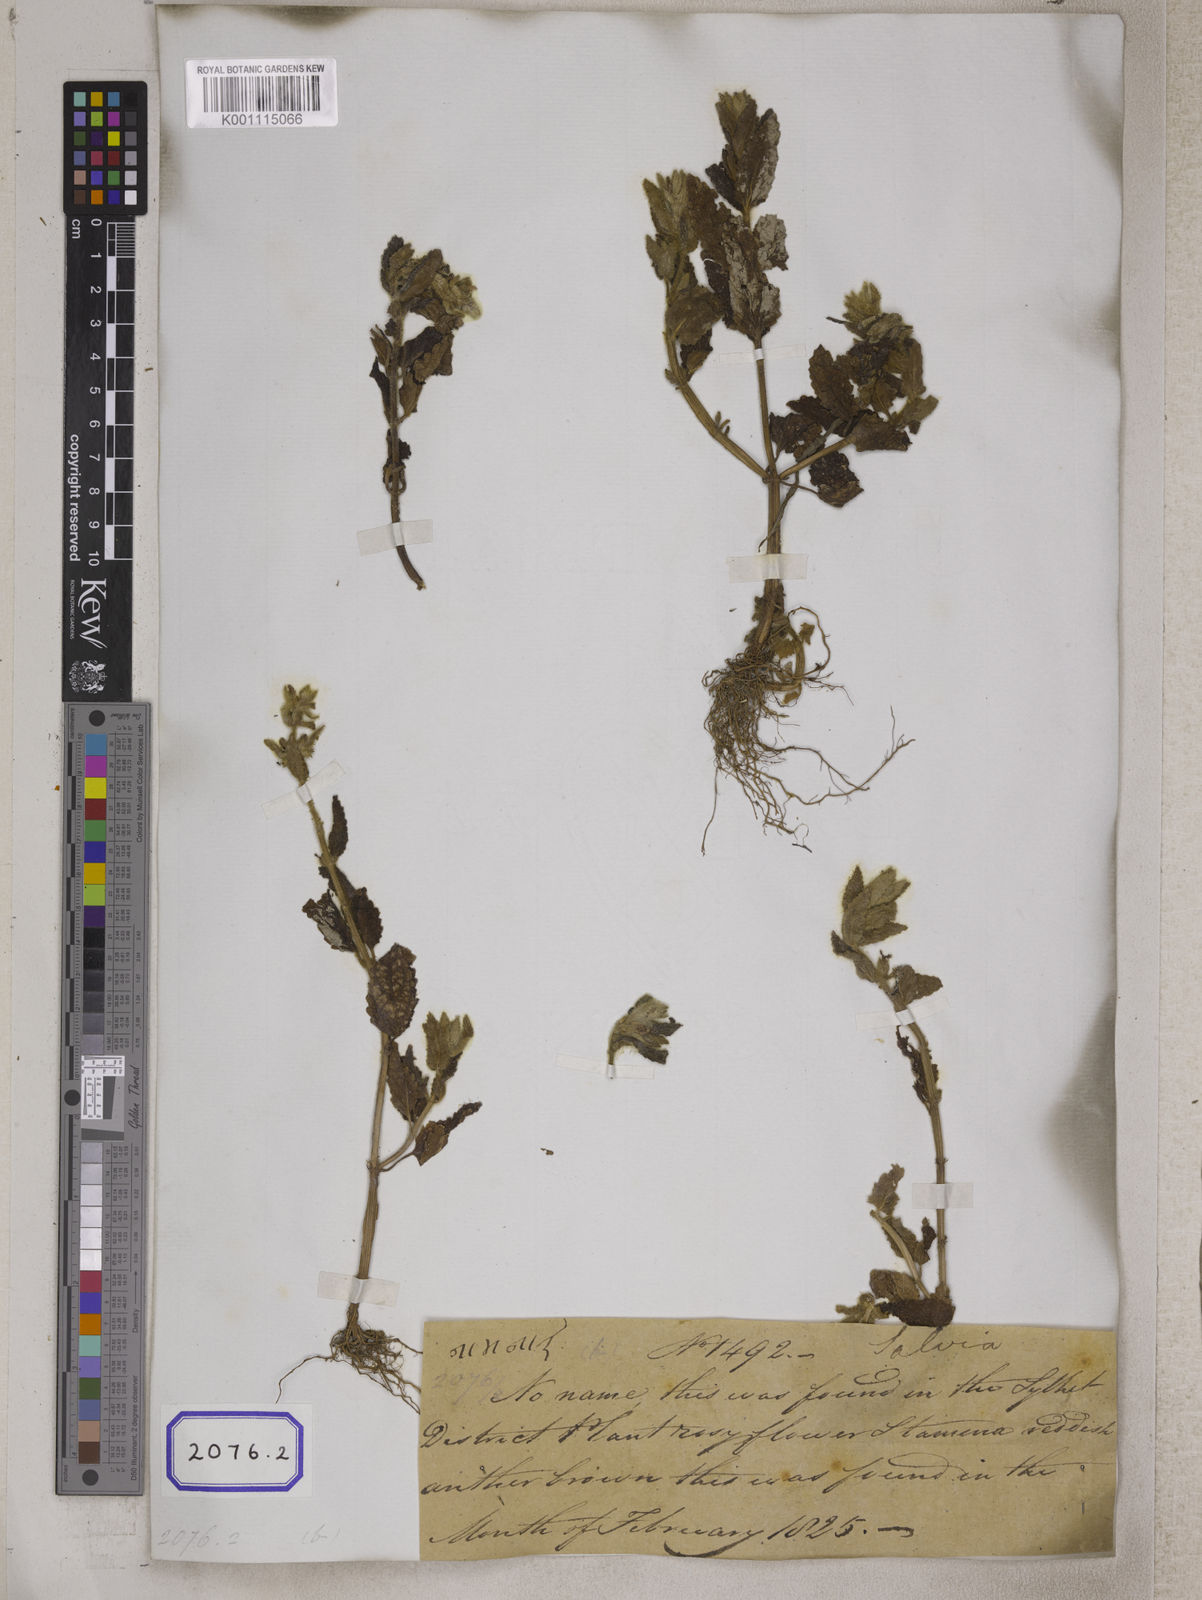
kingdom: Plantae
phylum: Tracheophyta
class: Magnoliopsida
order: Lamiales
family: Lamiaceae
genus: Stachys
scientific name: Stachys
